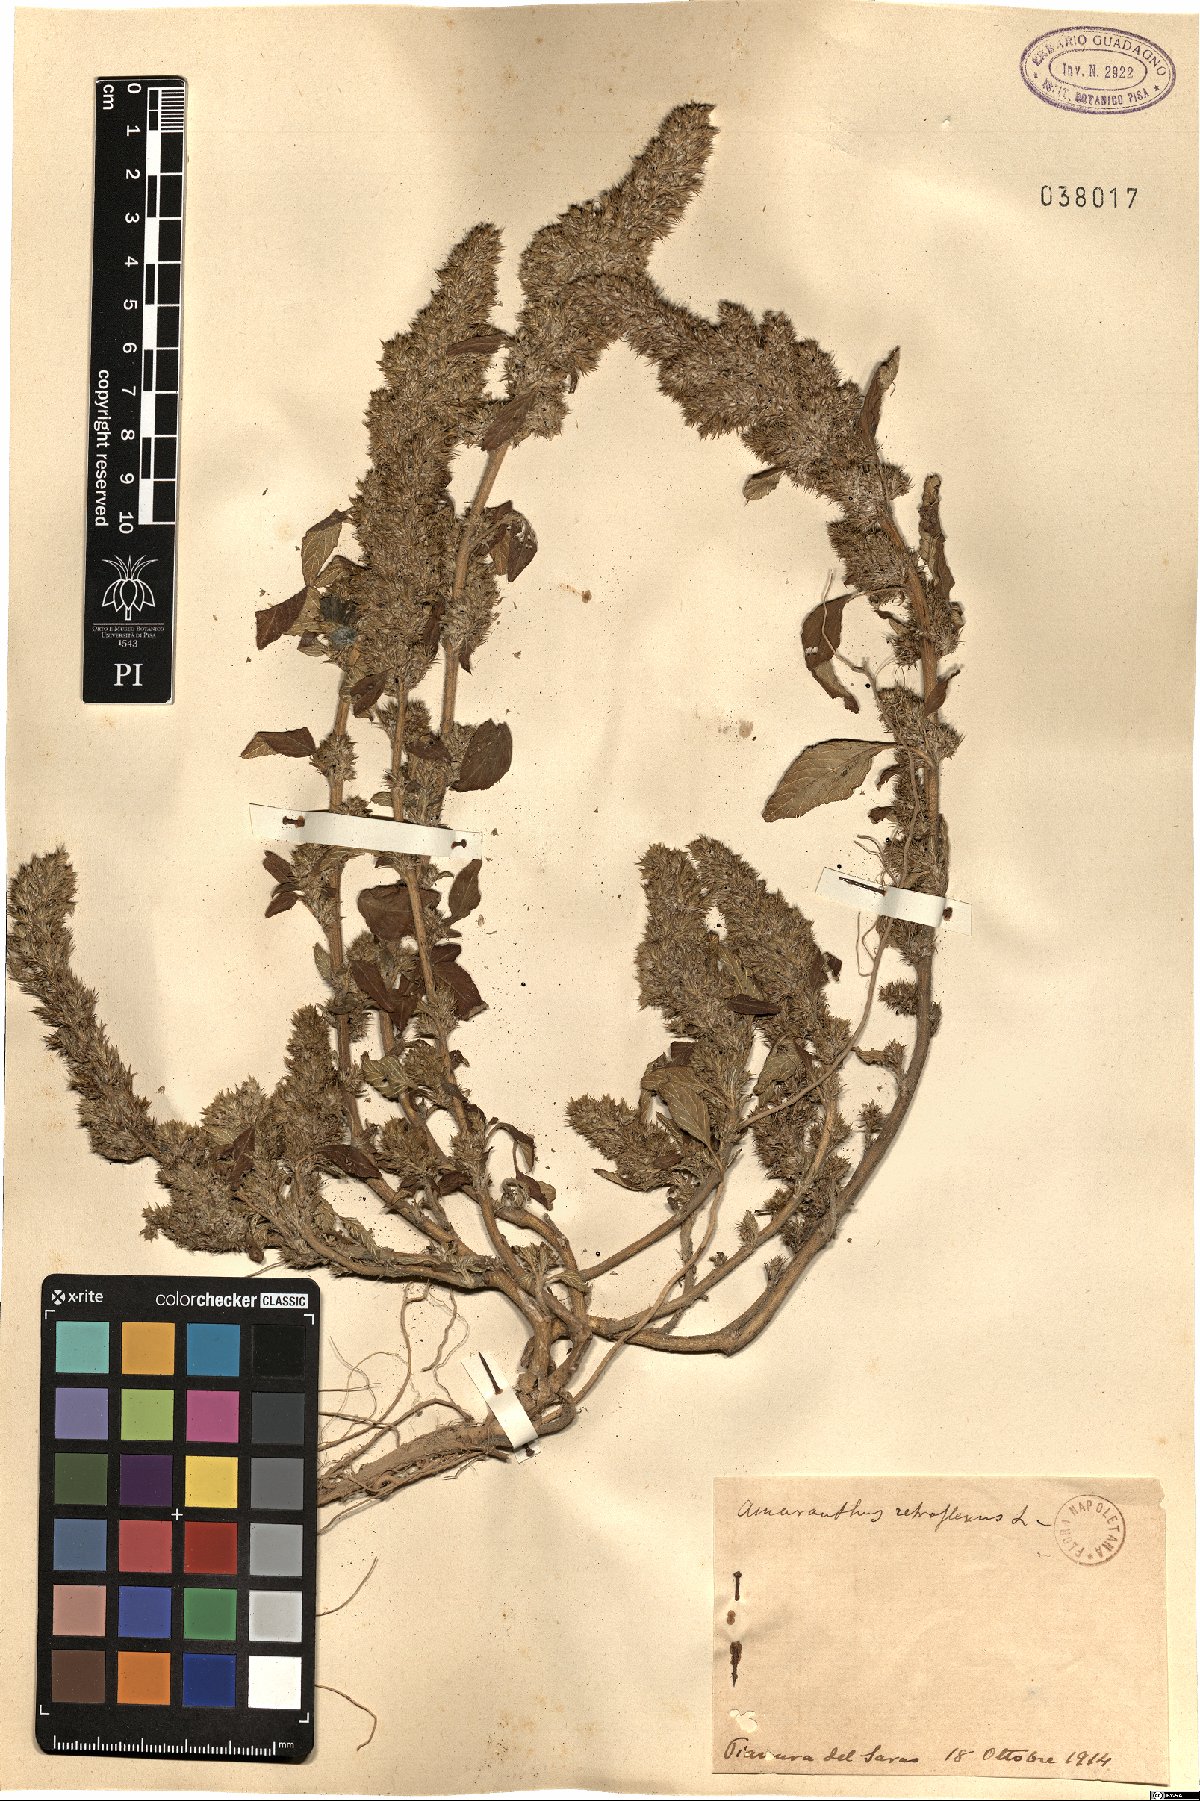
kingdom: Plantae
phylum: Tracheophyta
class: Magnoliopsida
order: Caryophyllales
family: Amaranthaceae
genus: Amaranthus
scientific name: Amaranthus retroflexus
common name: Redroot amaranth
